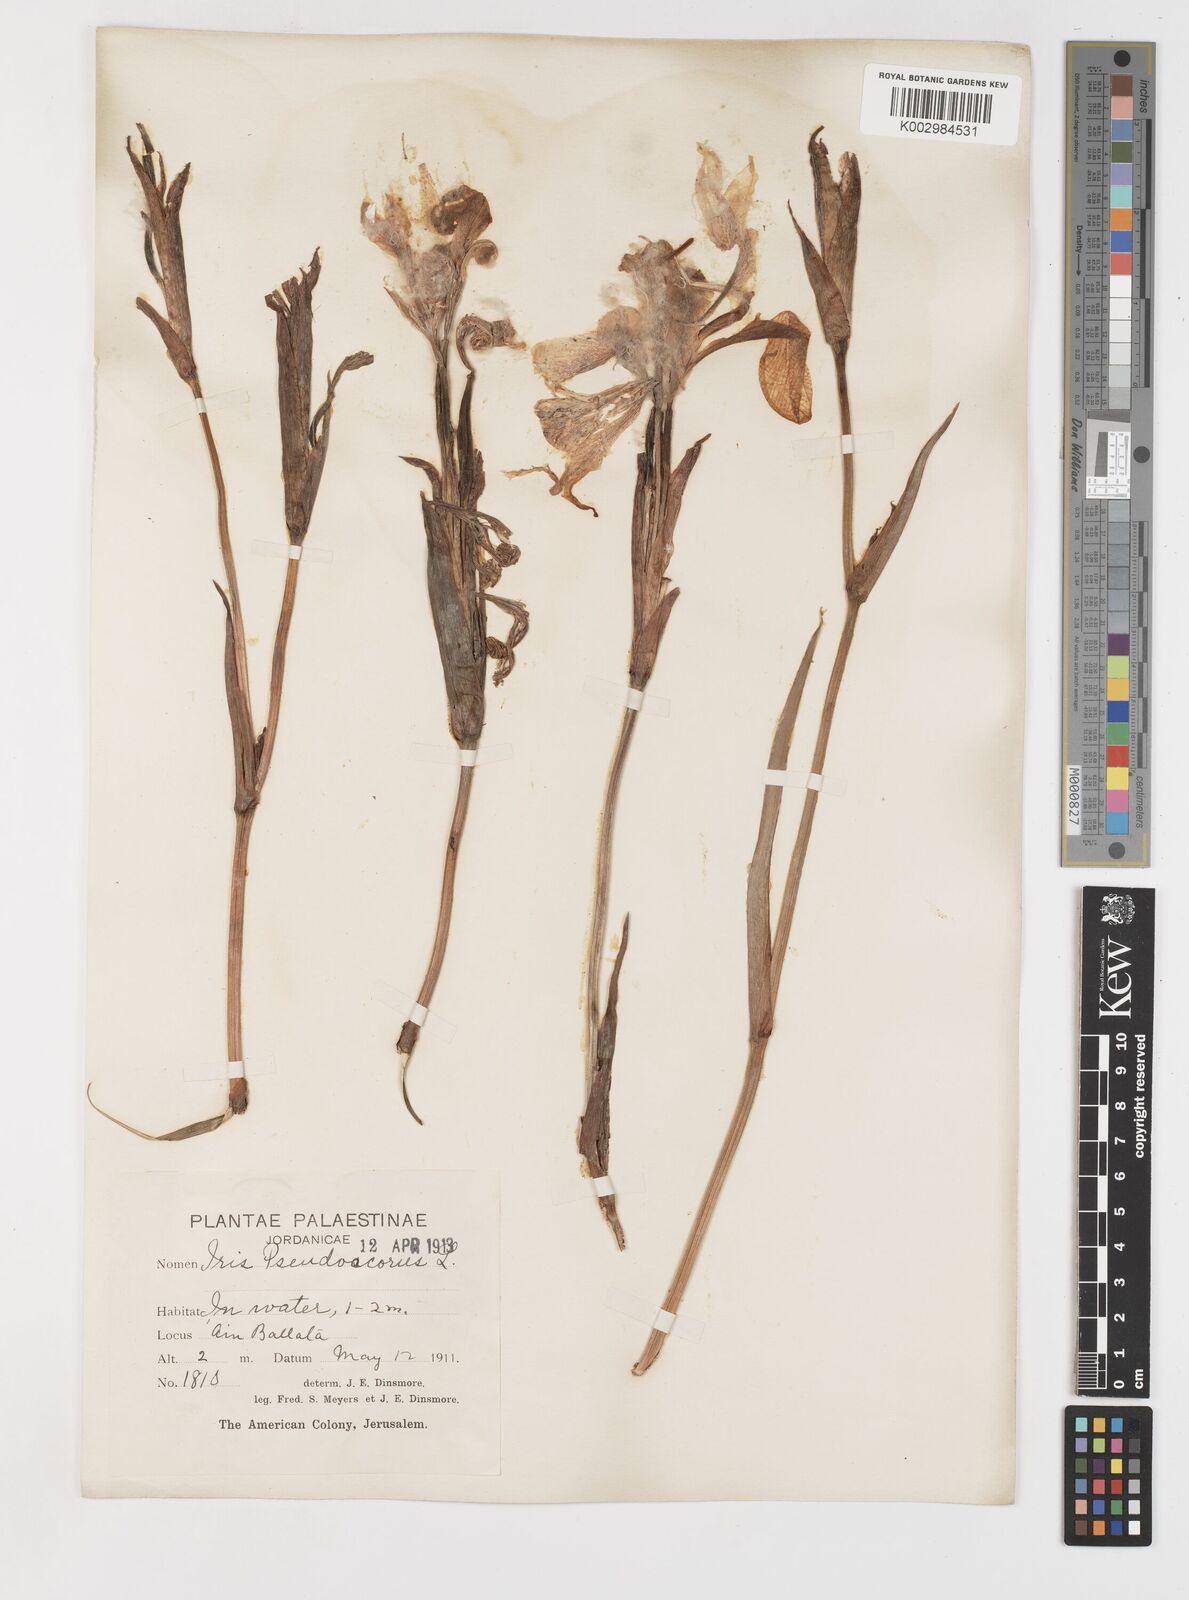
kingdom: Plantae
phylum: Tracheophyta
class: Liliopsida
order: Asparagales
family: Iridaceae
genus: Iris
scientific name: Iris pseudacorus
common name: Yellow flag
